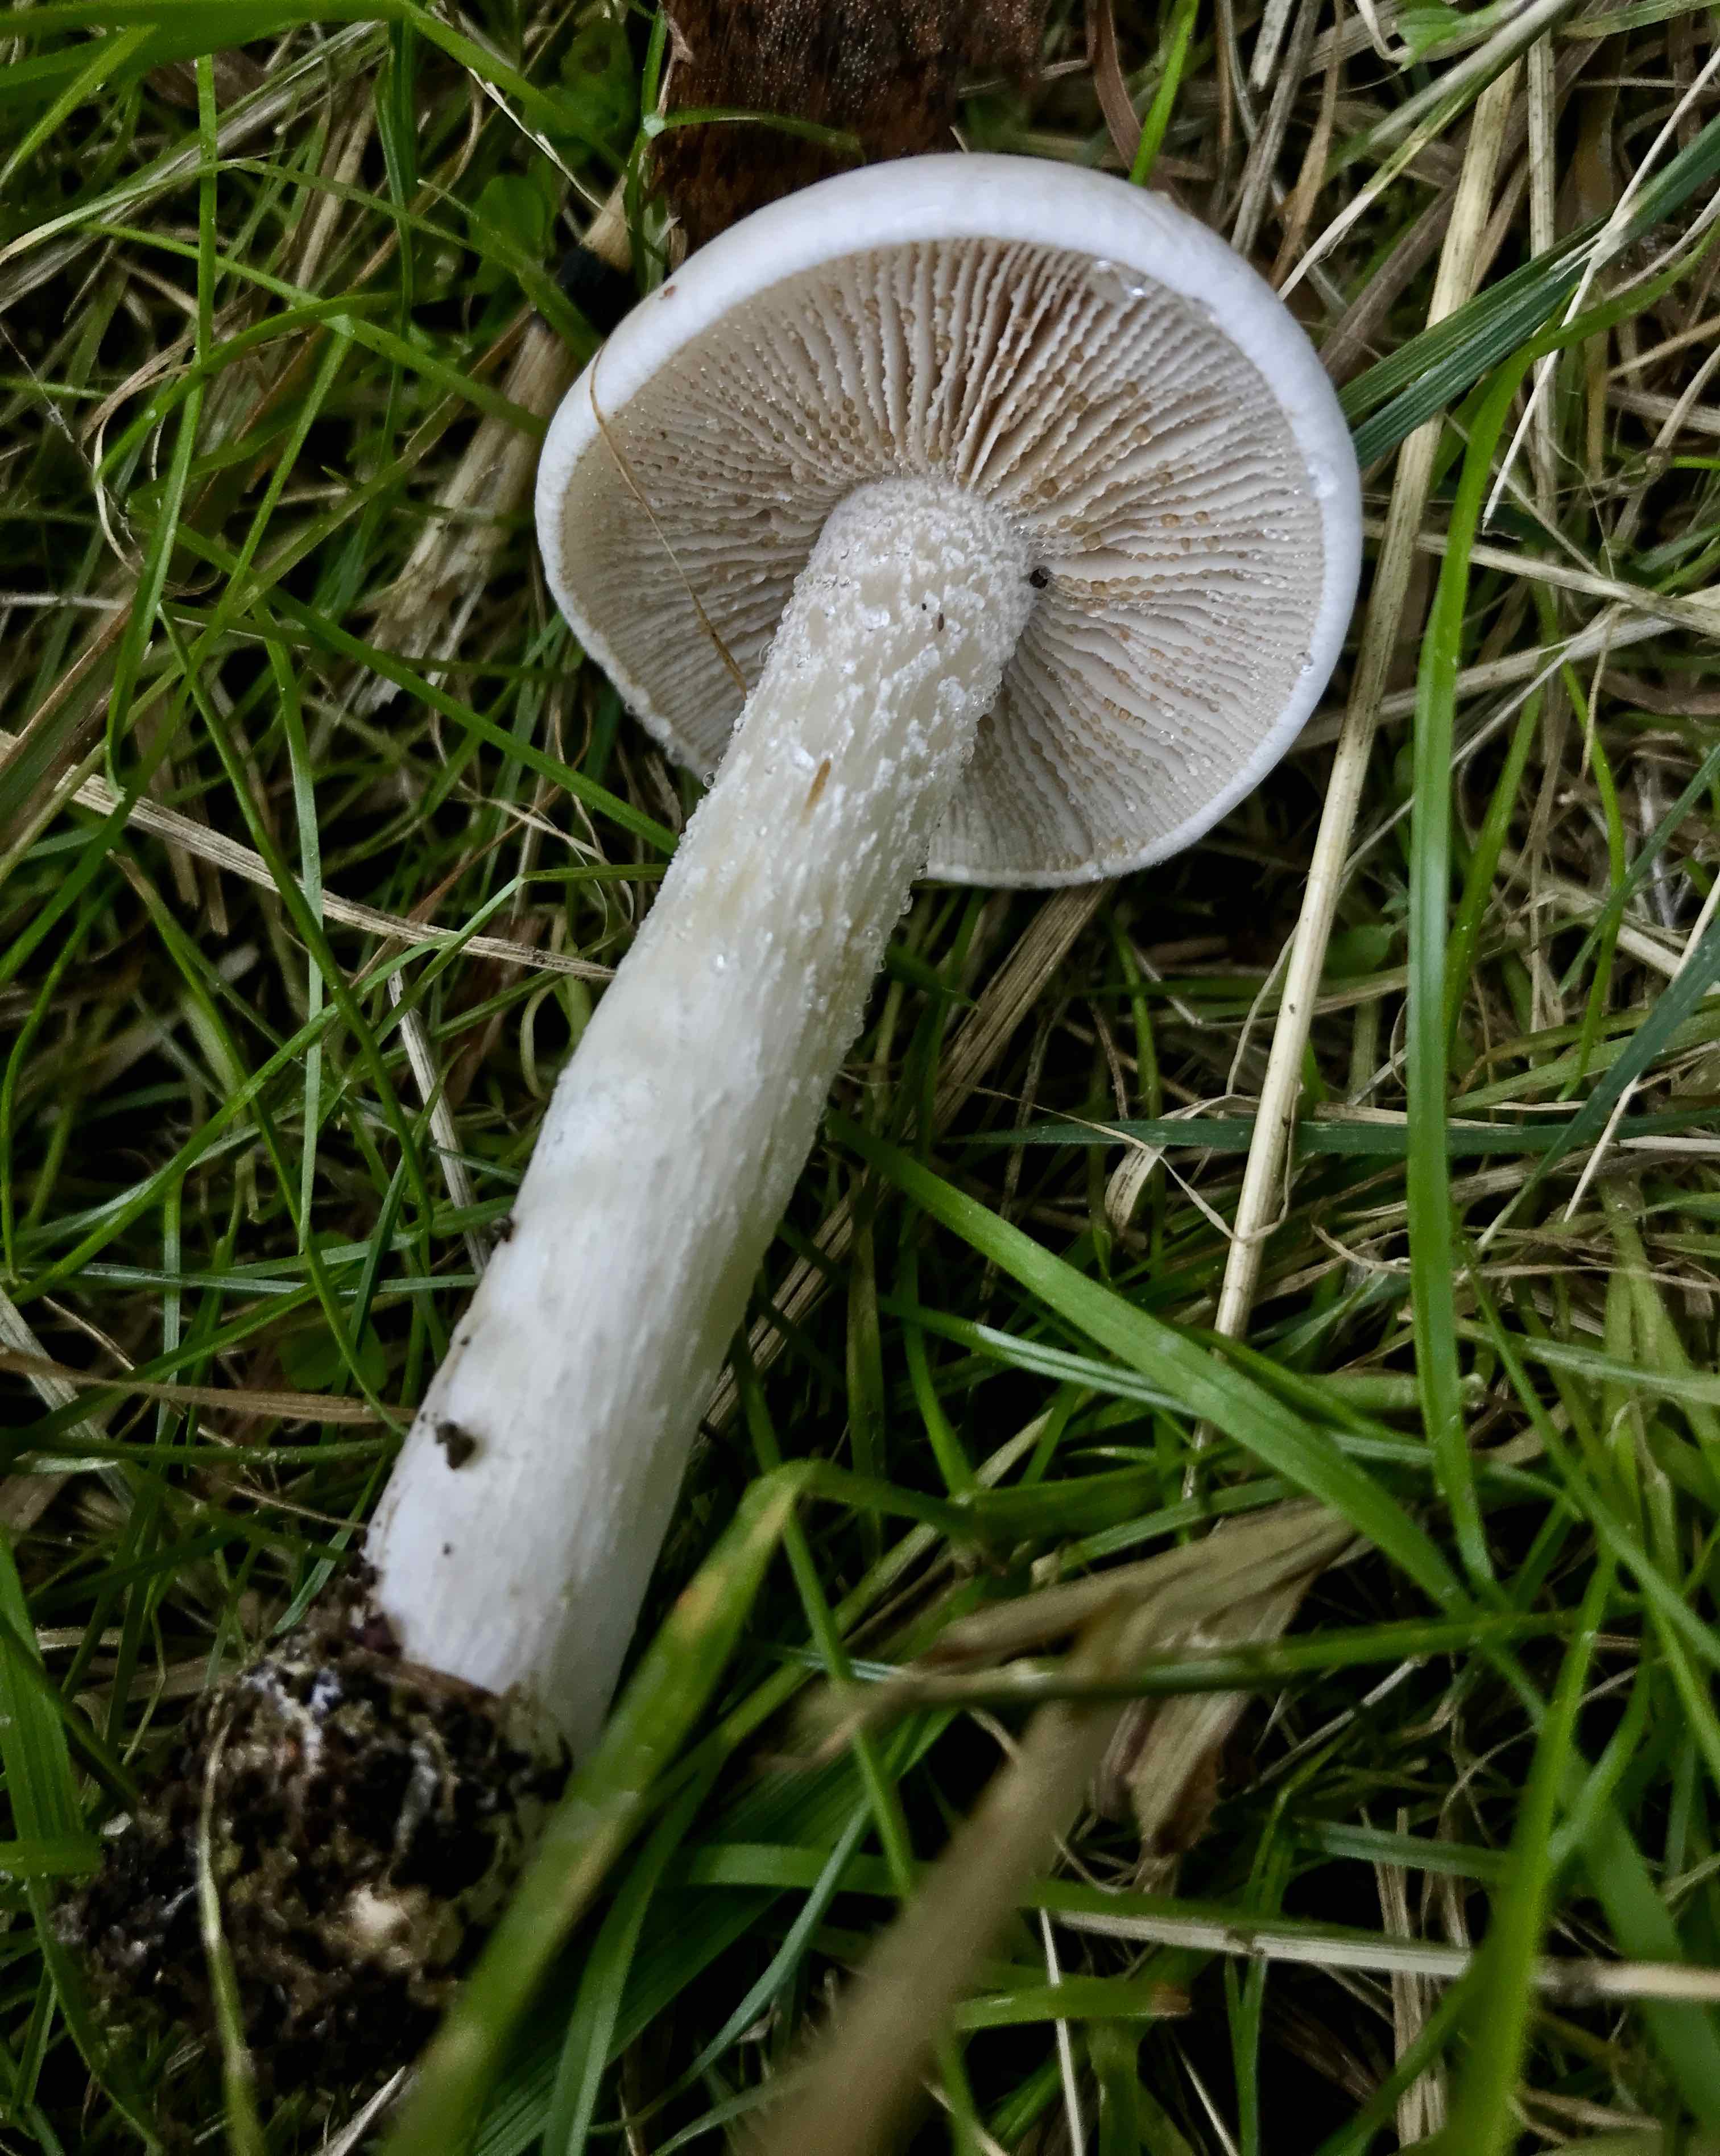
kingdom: Fungi
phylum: Basidiomycota
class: Agaricomycetes
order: Agaricales
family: Hymenogastraceae
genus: Hebeloma
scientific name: Hebeloma
